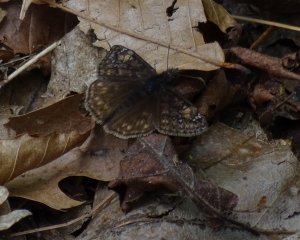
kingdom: Animalia
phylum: Arthropoda
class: Insecta
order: Lepidoptera
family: Hesperiidae
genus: Gesta
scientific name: Gesta
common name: Juvenal's Duskywing
